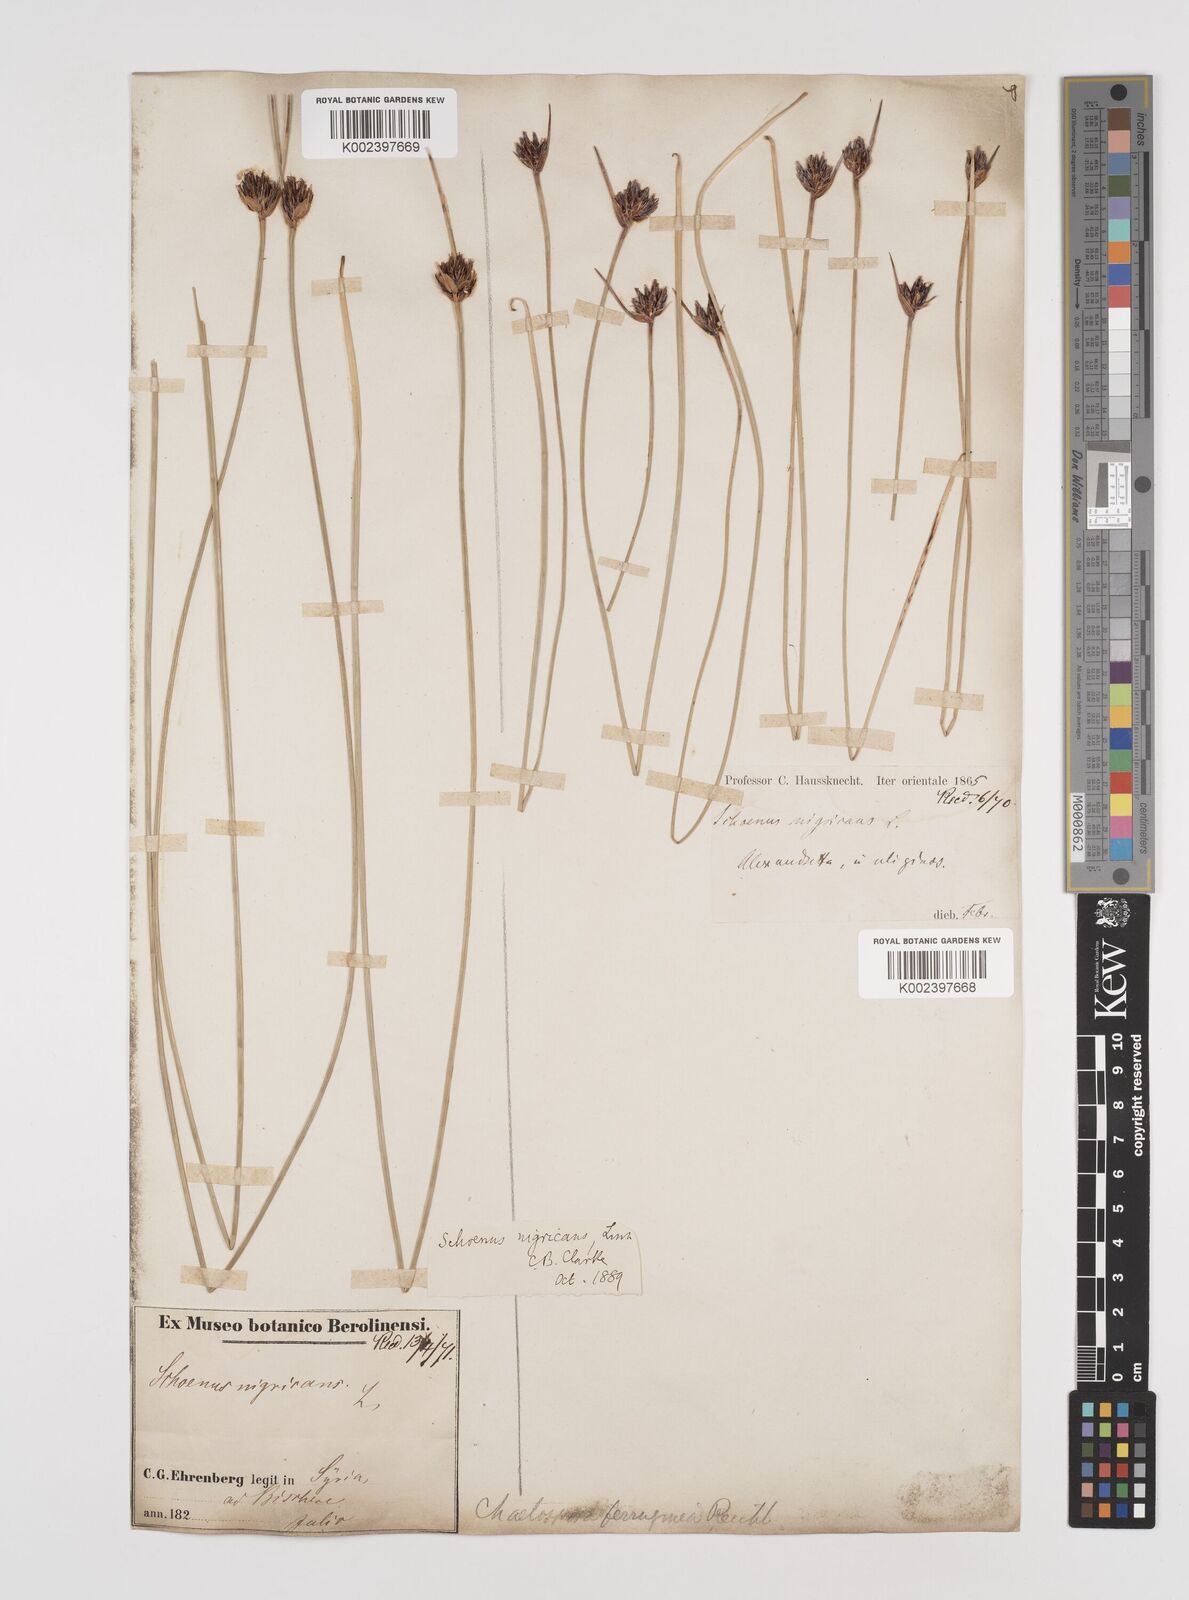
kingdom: Plantae
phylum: Tracheophyta
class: Liliopsida
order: Poales
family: Cyperaceae
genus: Schoenus
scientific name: Schoenus nigricans
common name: Black bog-rush
